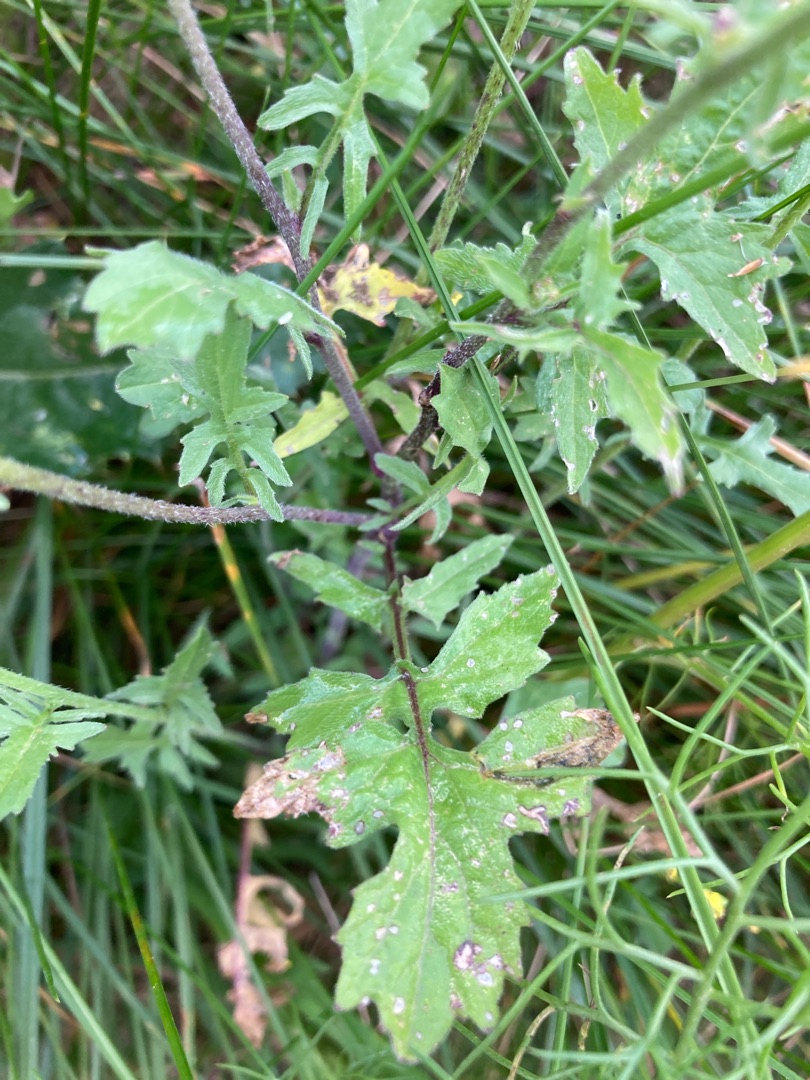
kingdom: Plantae
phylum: Tracheophyta
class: Magnoliopsida
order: Brassicales
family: Brassicaceae
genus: Sisymbrium
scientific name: Sisymbrium officinale
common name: Rank vejsennep
